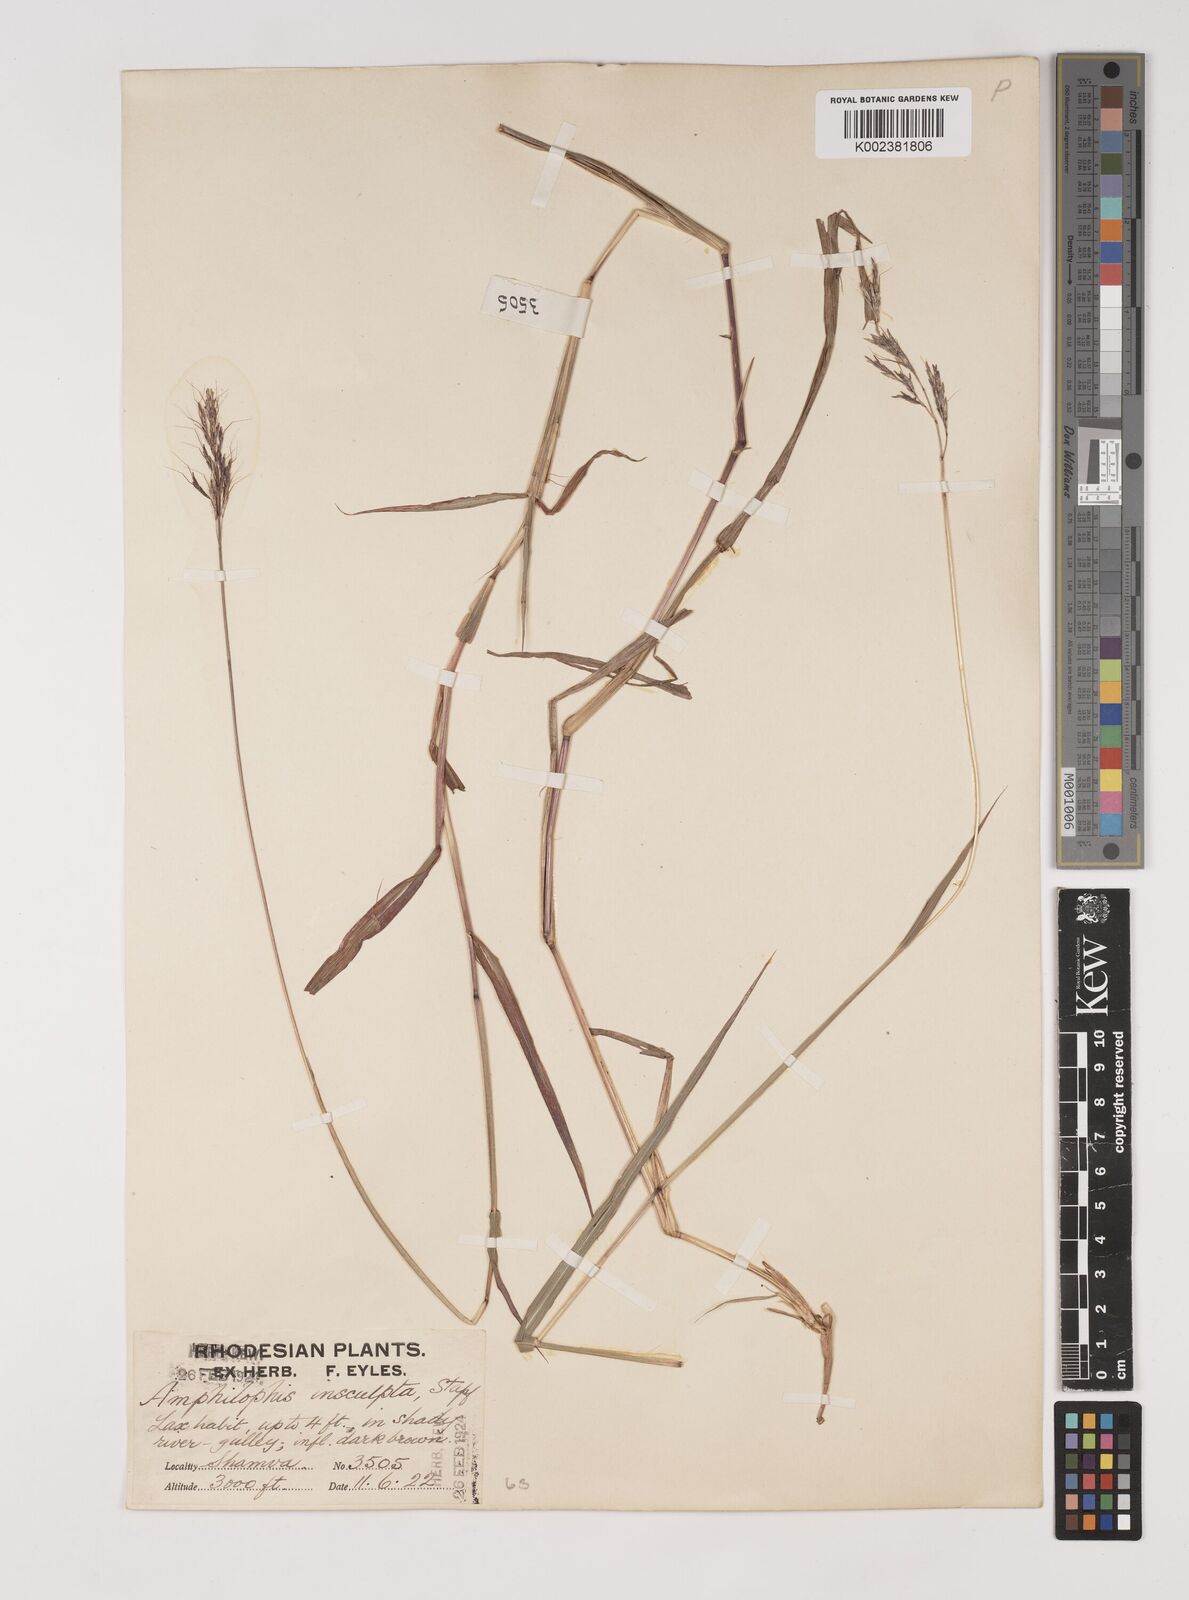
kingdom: Plantae
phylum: Tracheophyta
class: Liliopsida
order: Poales
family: Poaceae
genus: Bothriochloa
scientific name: Bothriochloa bladhii
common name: Caucasian bluestem
